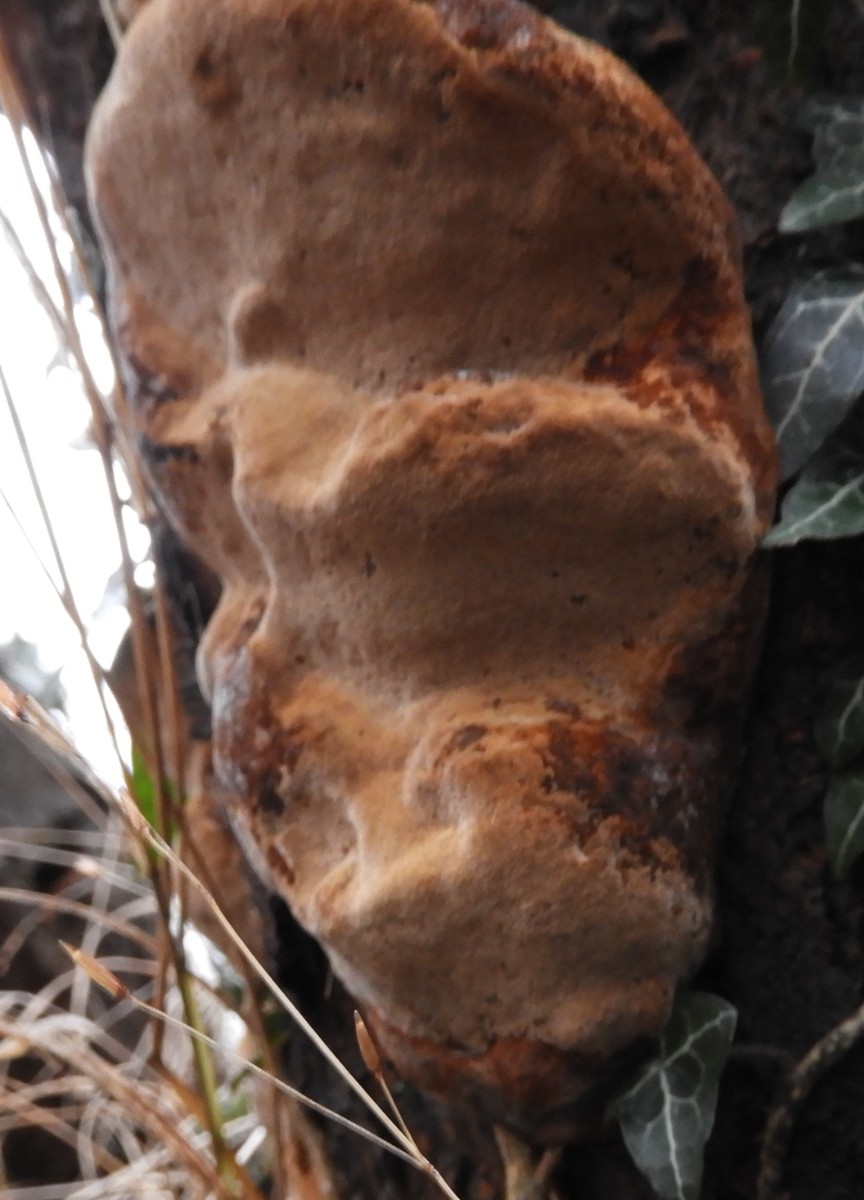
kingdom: Fungi
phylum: Basidiomycota
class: Agaricomycetes
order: Hymenochaetales
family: Hymenochaetaceae
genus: Phellinus
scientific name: Phellinus pomaceus
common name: blomme-ildporesvamp
